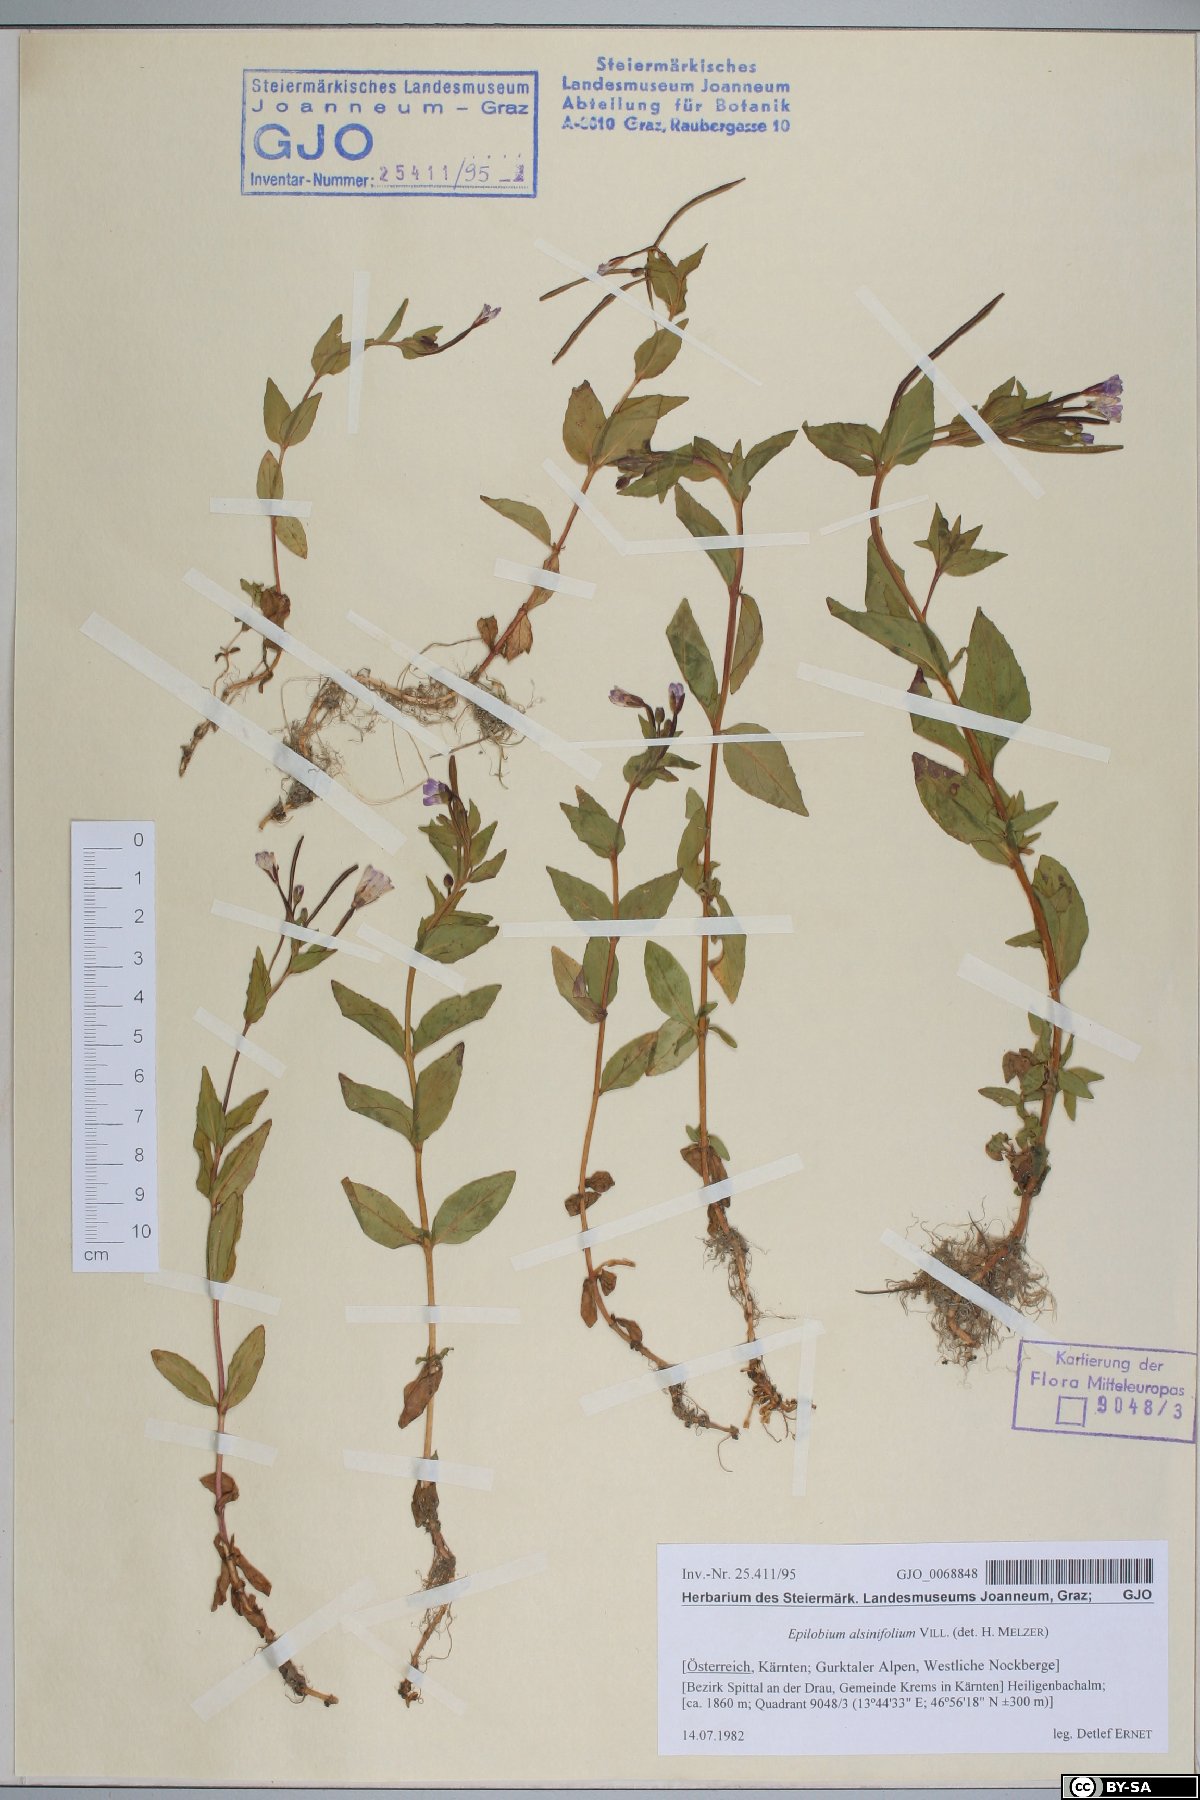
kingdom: Plantae
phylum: Tracheophyta
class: Magnoliopsida
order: Myrtales
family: Onagraceae
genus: Epilobium
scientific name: Epilobium alsinifolium
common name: Chickweed willowherb
